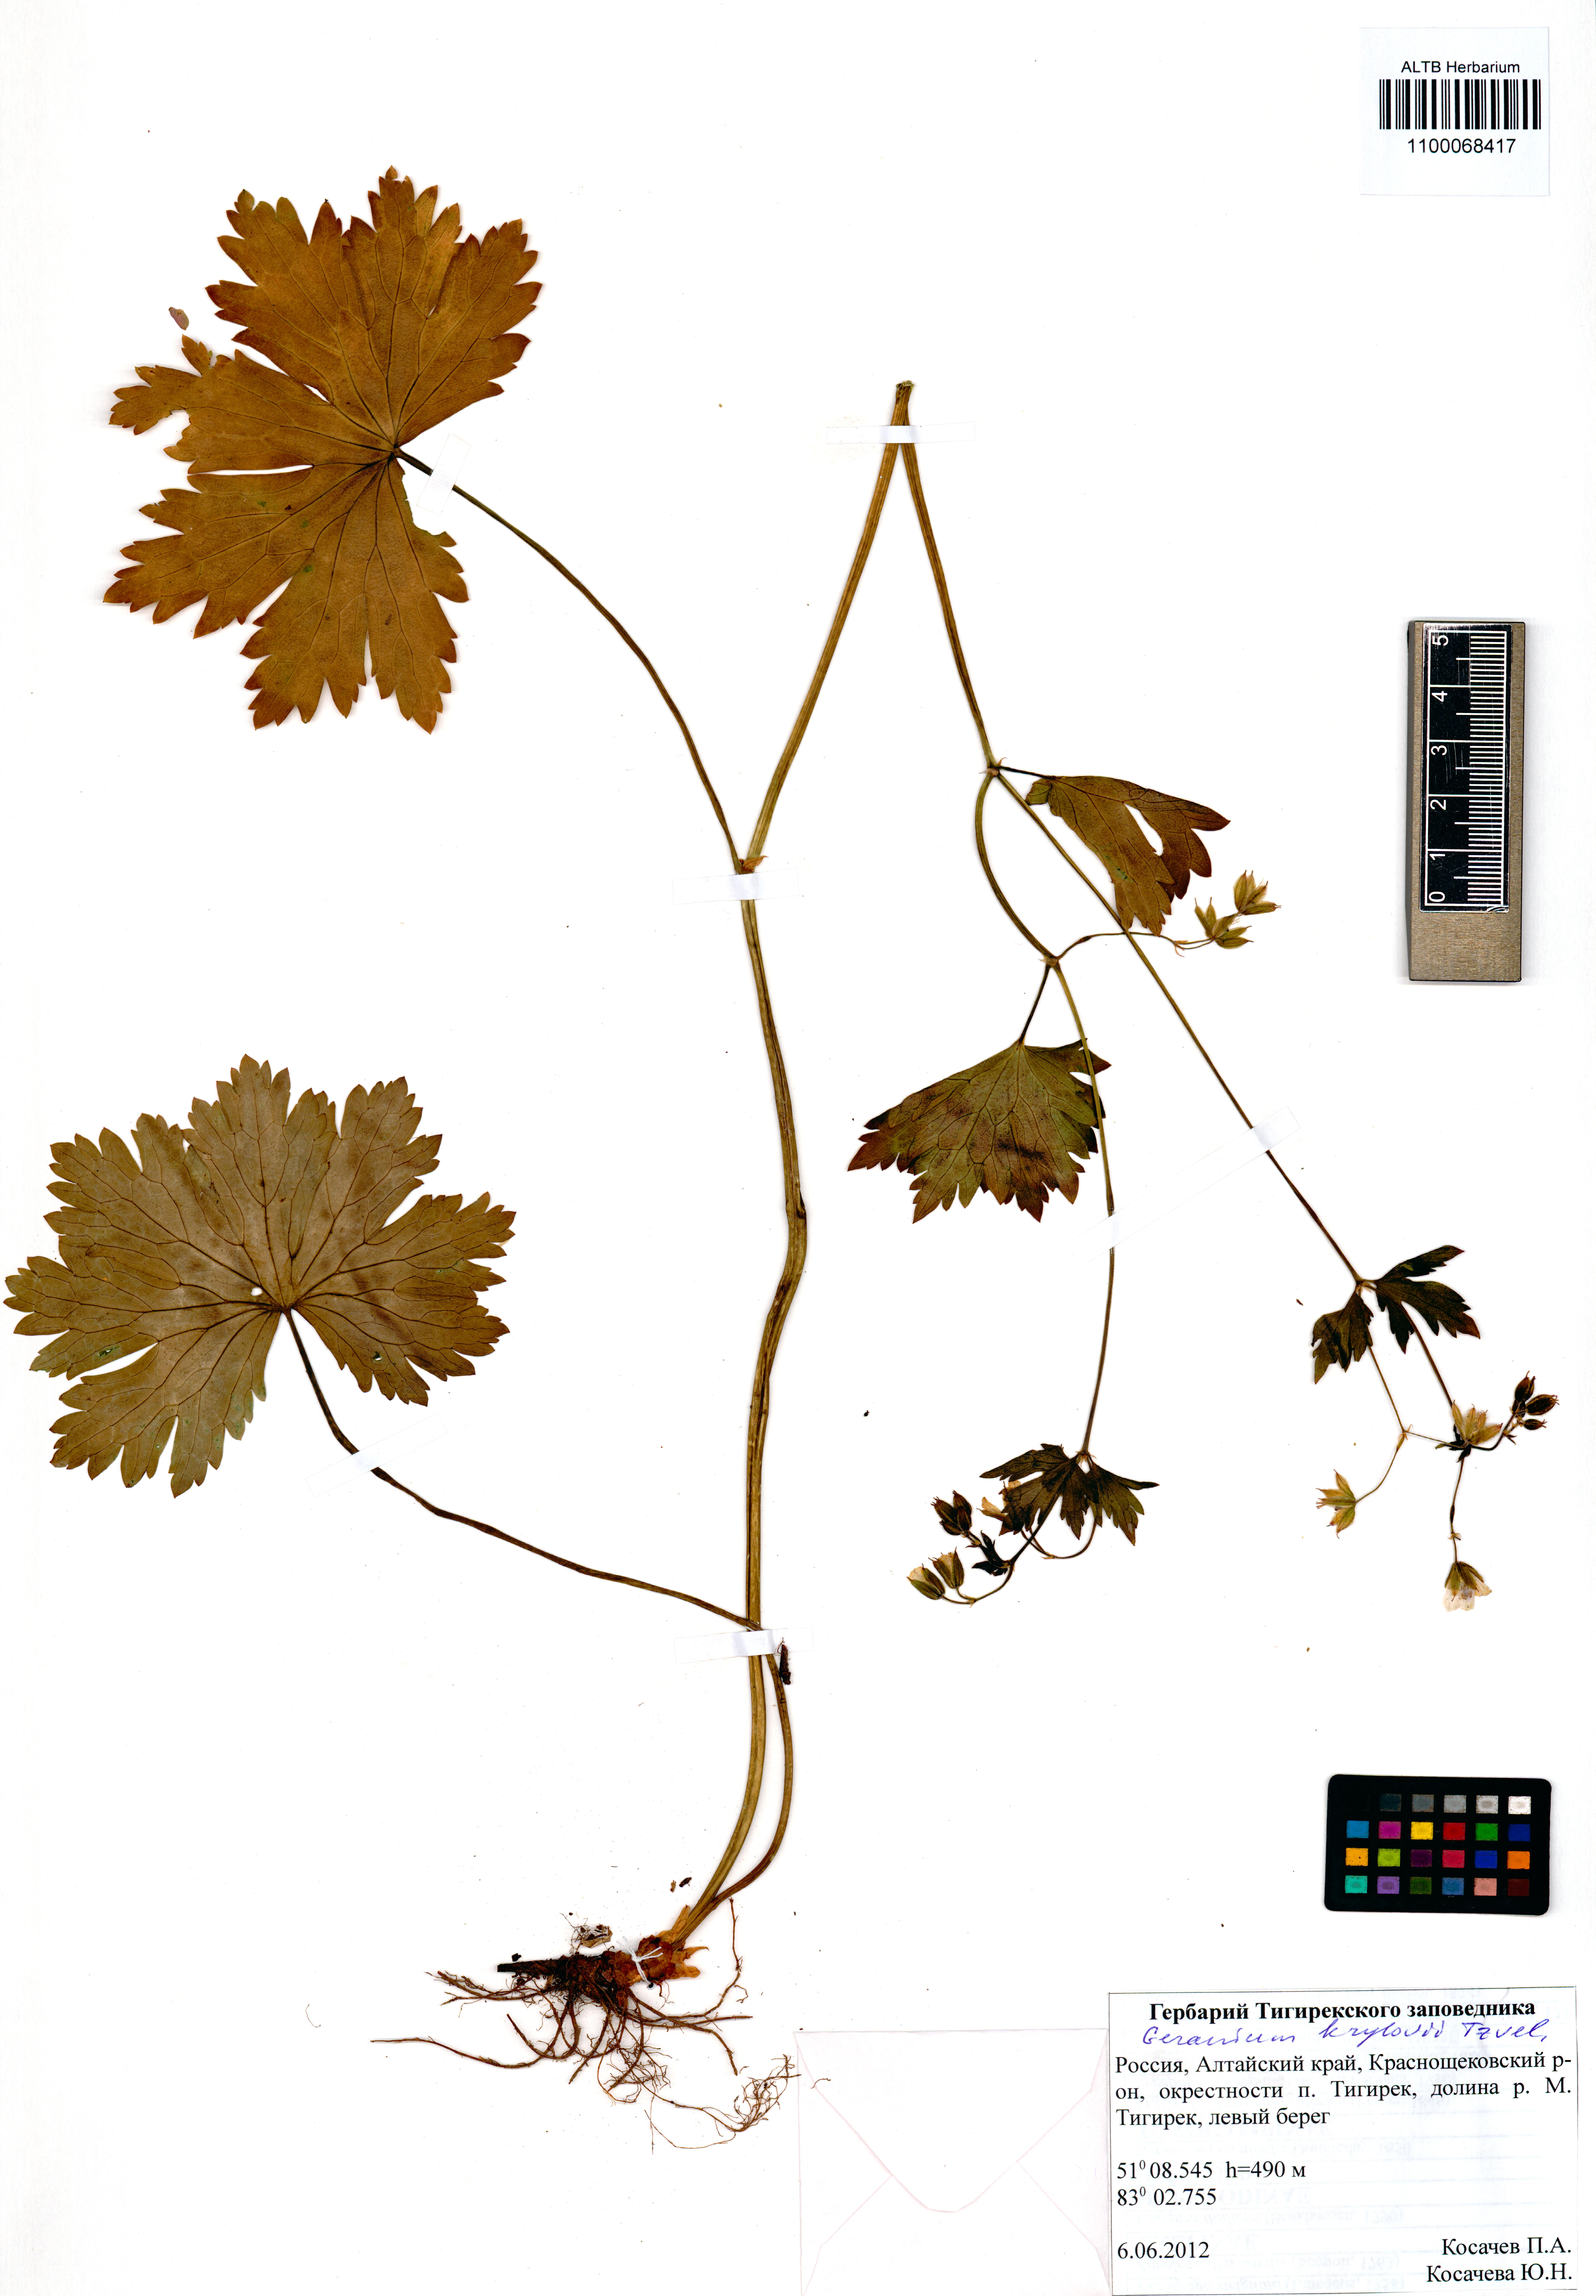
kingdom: Plantae
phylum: Tracheophyta
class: Magnoliopsida
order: Geraniales
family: Geraniaceae
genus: Geranium
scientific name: Geranium sylvaticum
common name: Wood crane's-bill
